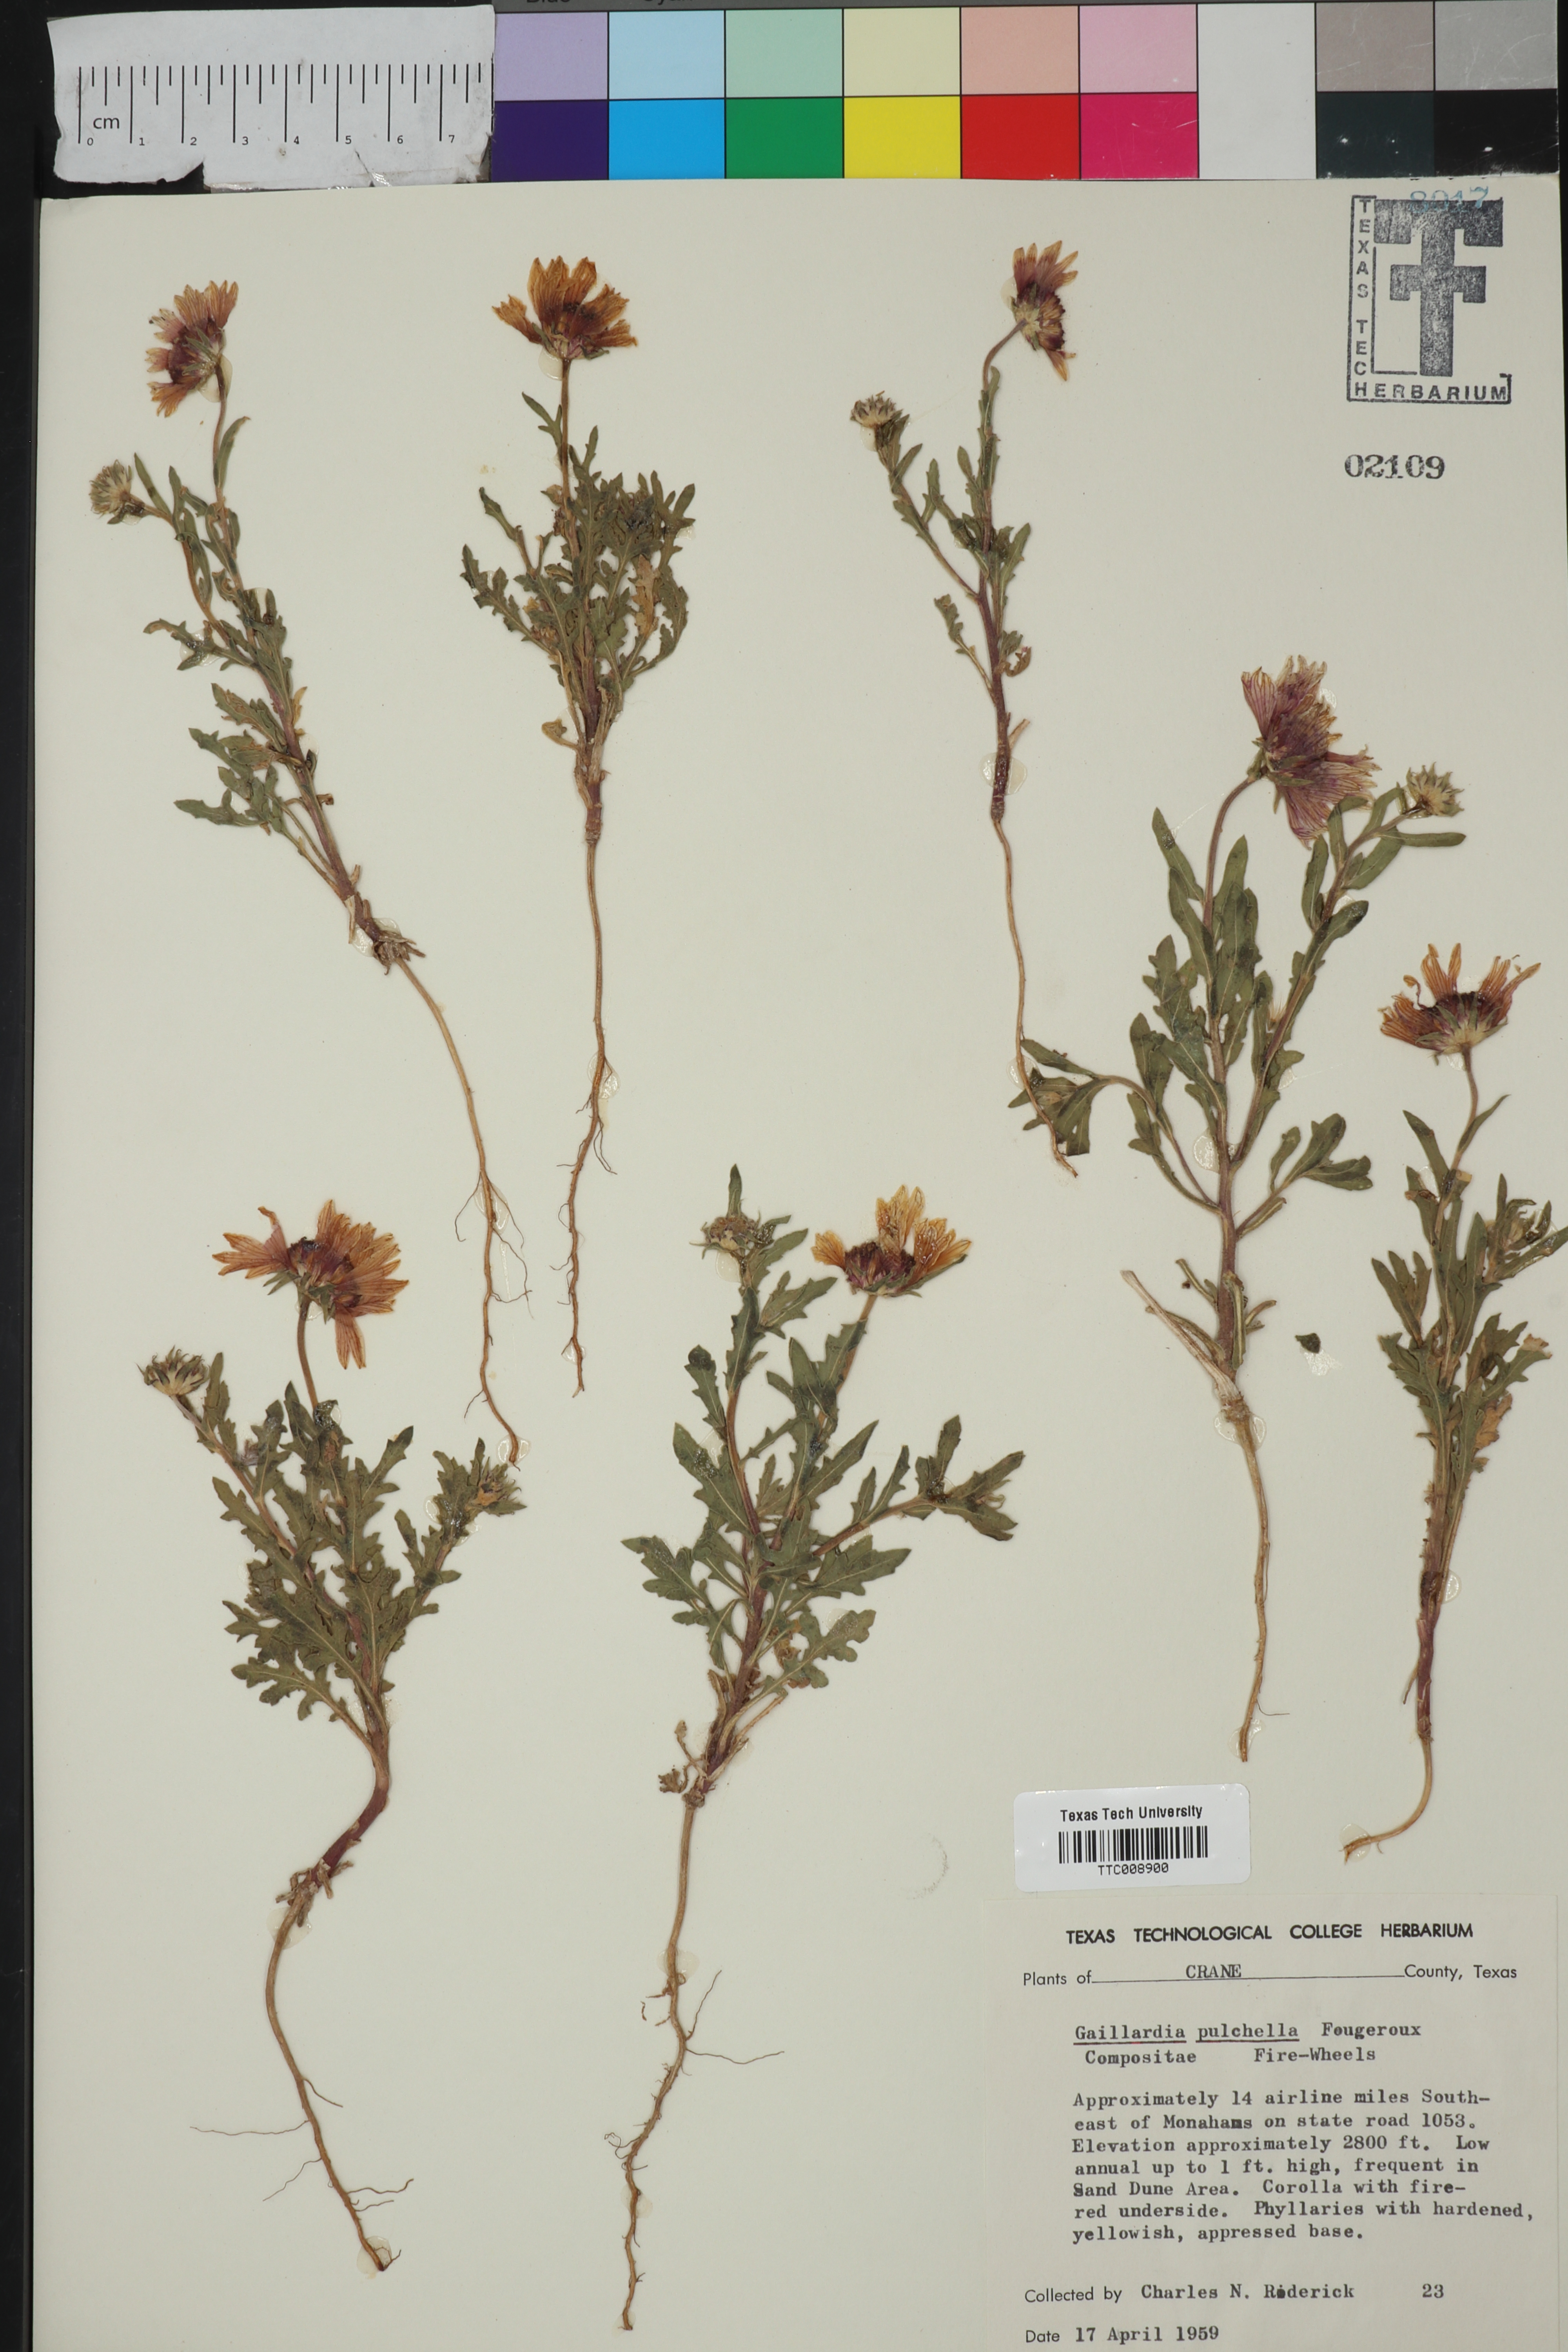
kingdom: Plantae
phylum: Tracheophyta
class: Magnoliopsida
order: Asterales
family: Asteraceae
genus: Gaillardia
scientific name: Gaillardia pulchella
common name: Firewheel
